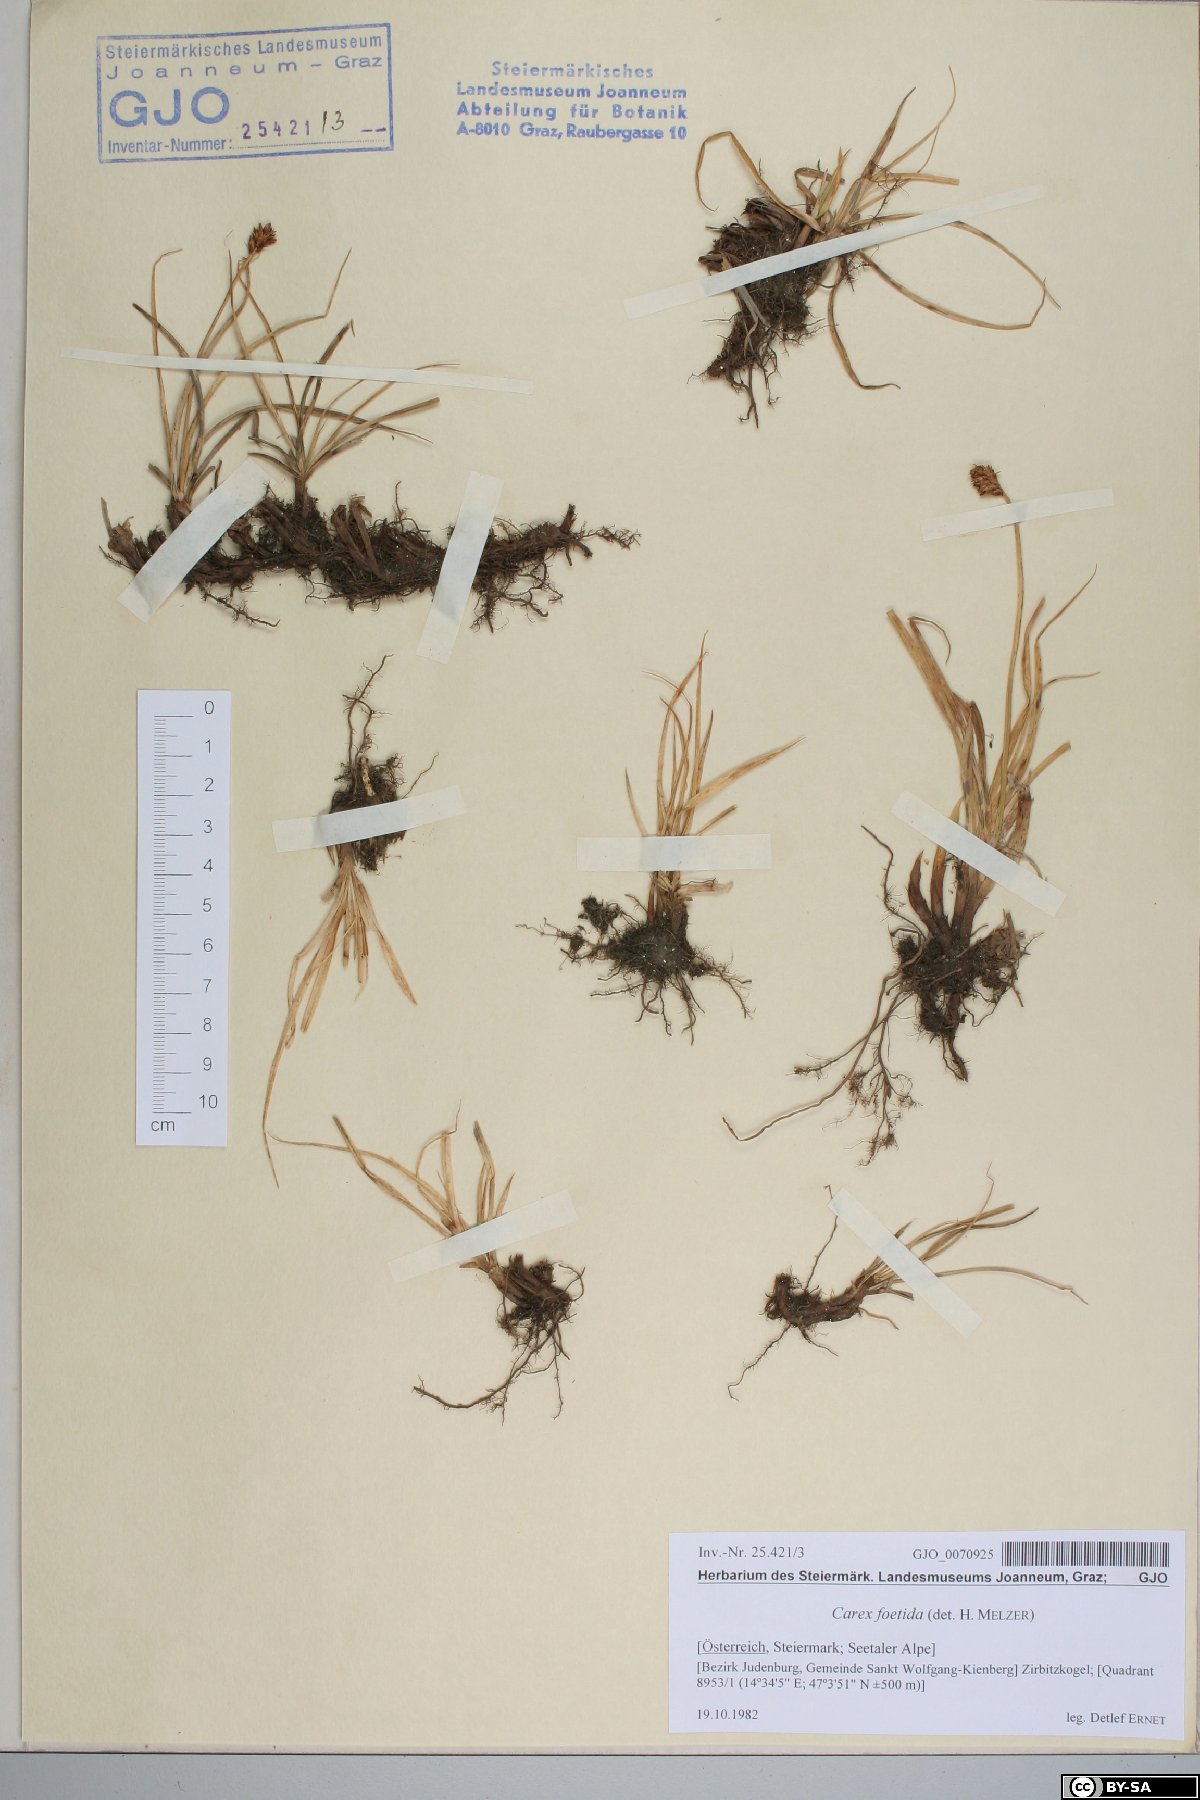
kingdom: Plantae
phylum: Tracheophyta
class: Liliopsida
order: Poales
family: Cyperaceae
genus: Carex
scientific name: Carex foetida
